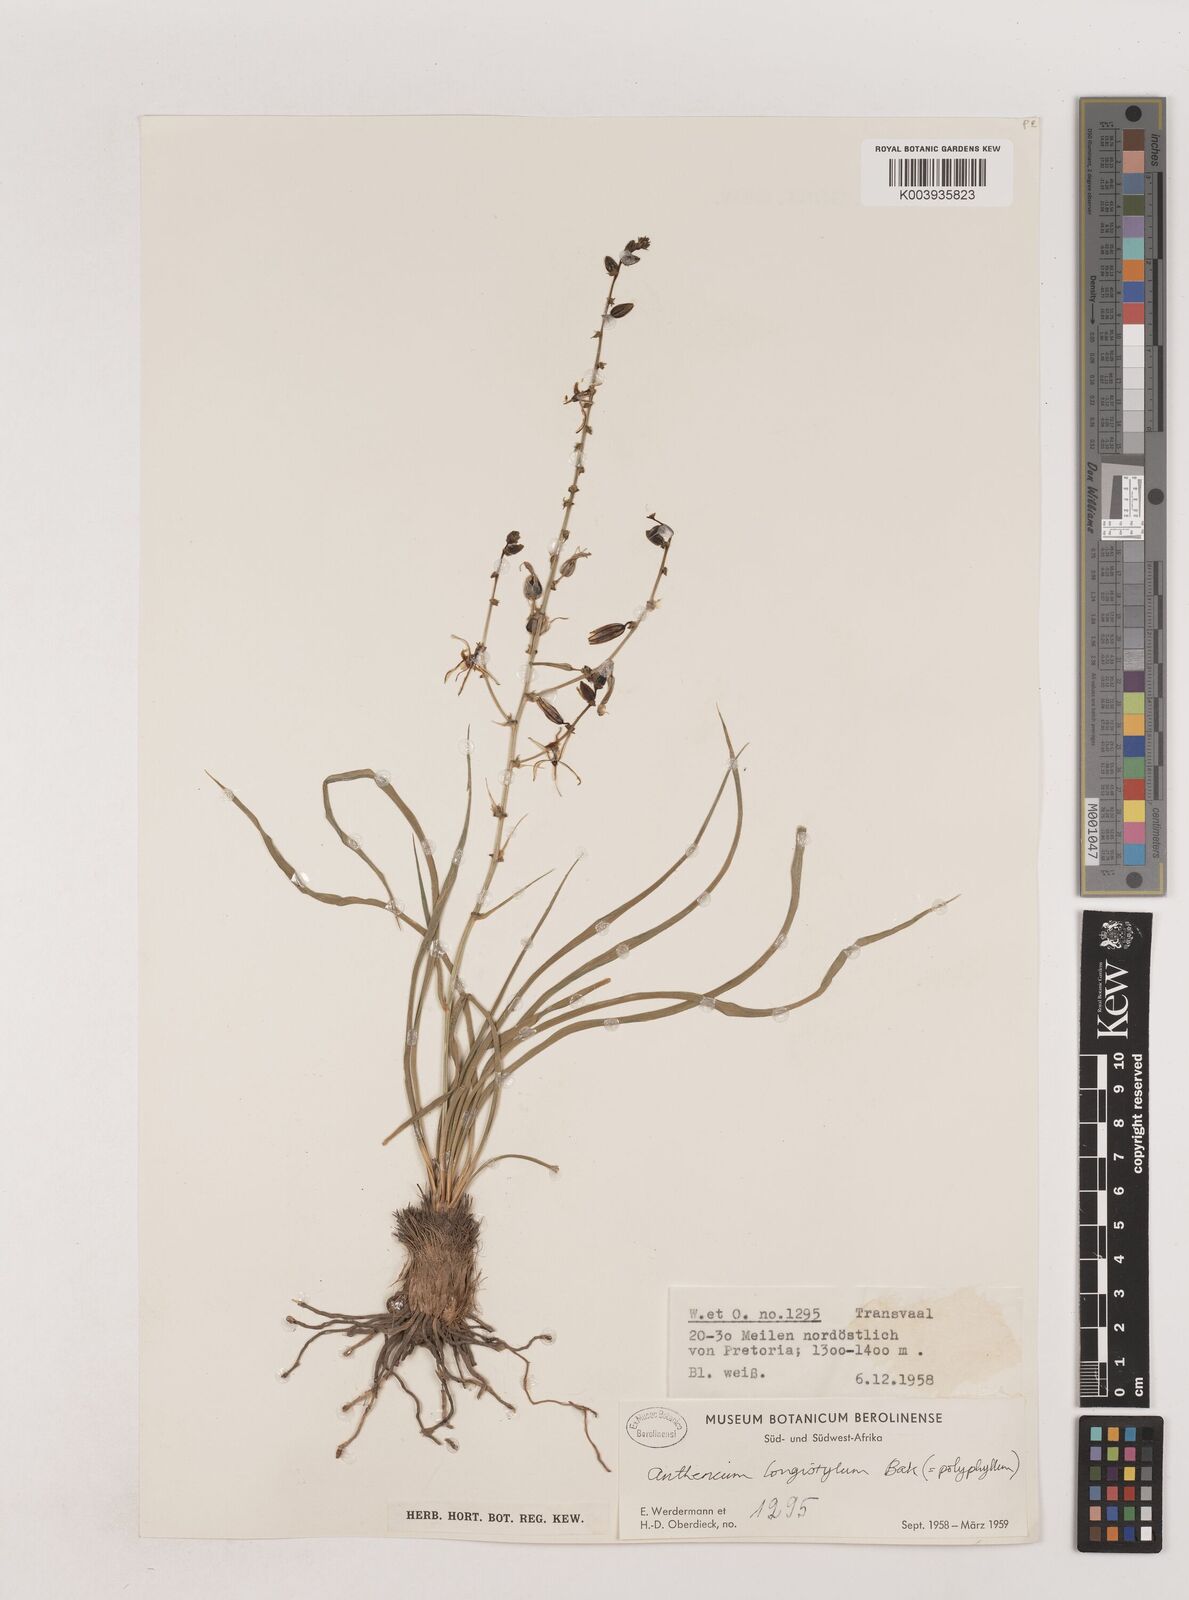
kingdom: Plantae
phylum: Tracheophyta
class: Liliopsida
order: Asparagales
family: Asparagaceae
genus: Chlorophytum
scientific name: Chlorophytum recurvifolium
